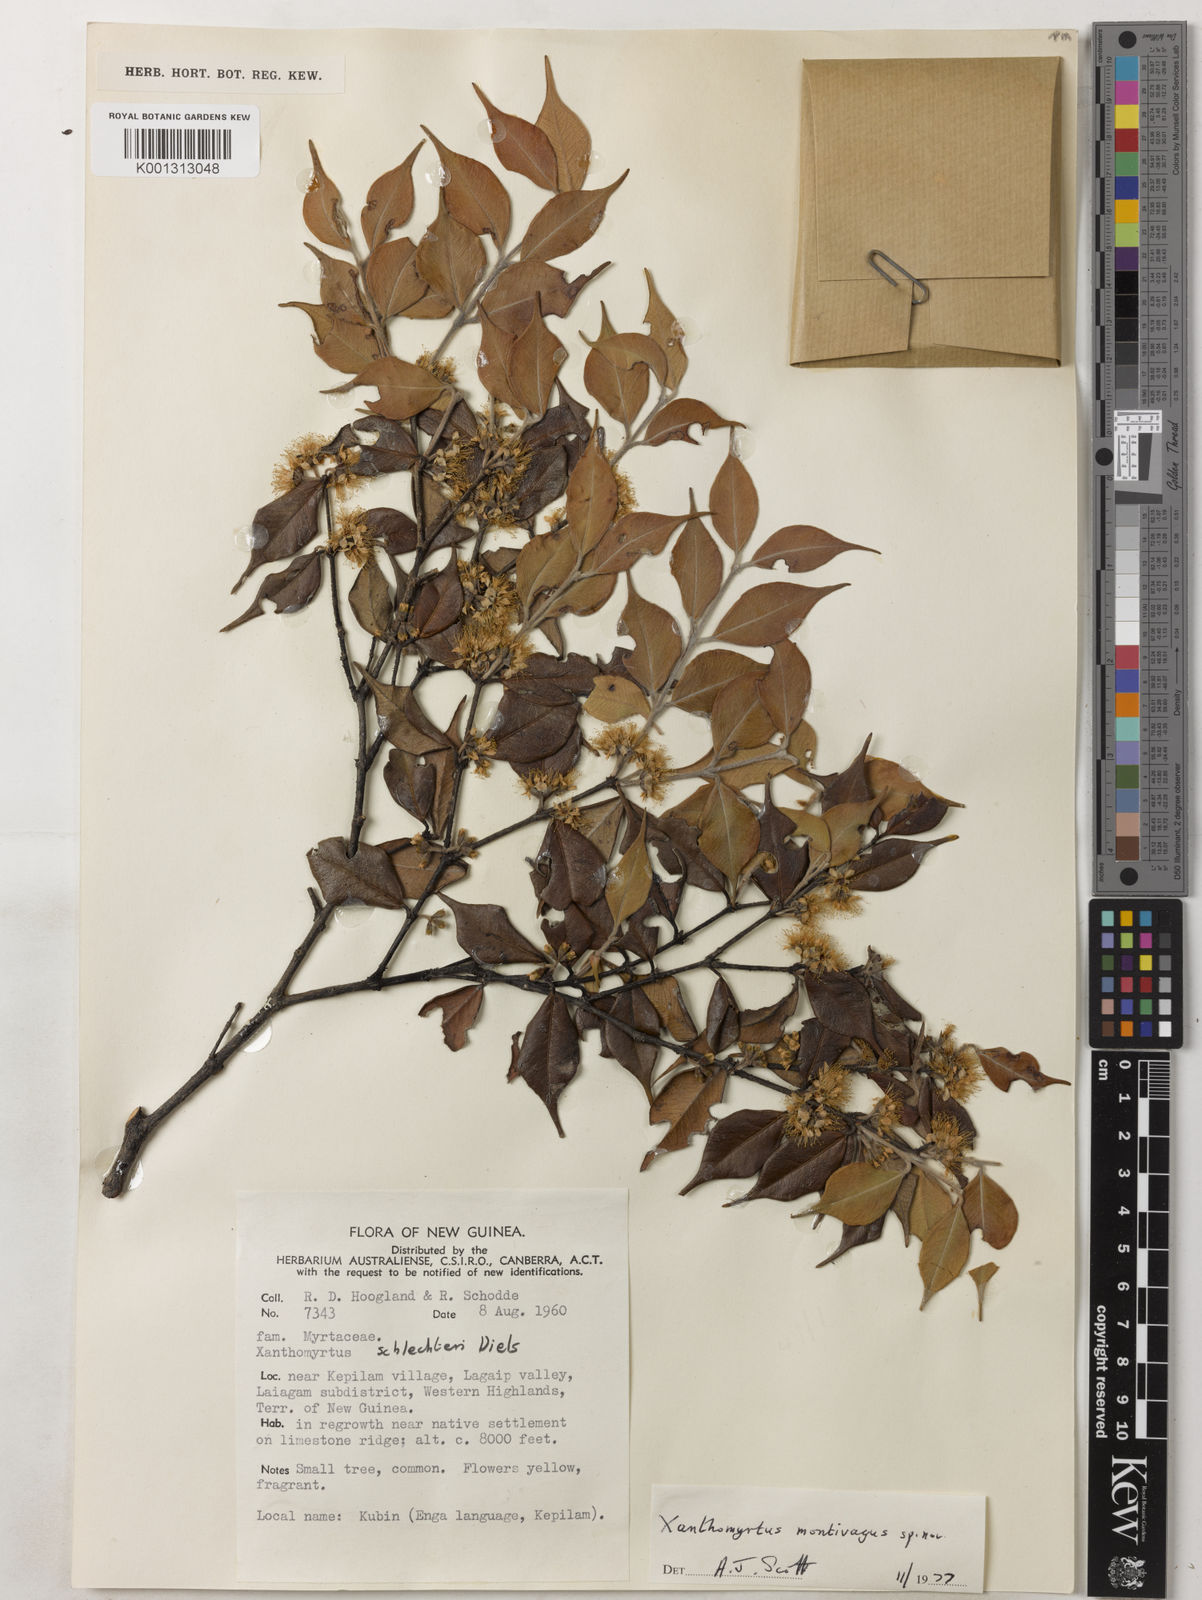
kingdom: Plantae
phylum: Tracheophyta
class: Magnoliopsida
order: Myrtales
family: Myrtaceae
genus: Xanthomyrtus
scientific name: Xanthomyrtus montivaga
